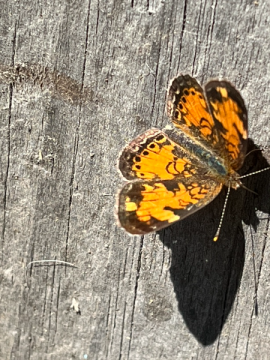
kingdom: Animalia
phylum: Arthropoda
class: Insecta
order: Lepidoptera
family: Nymphalidae
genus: Phyciodes
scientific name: Phyciodes tharos
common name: Northern Crescent
